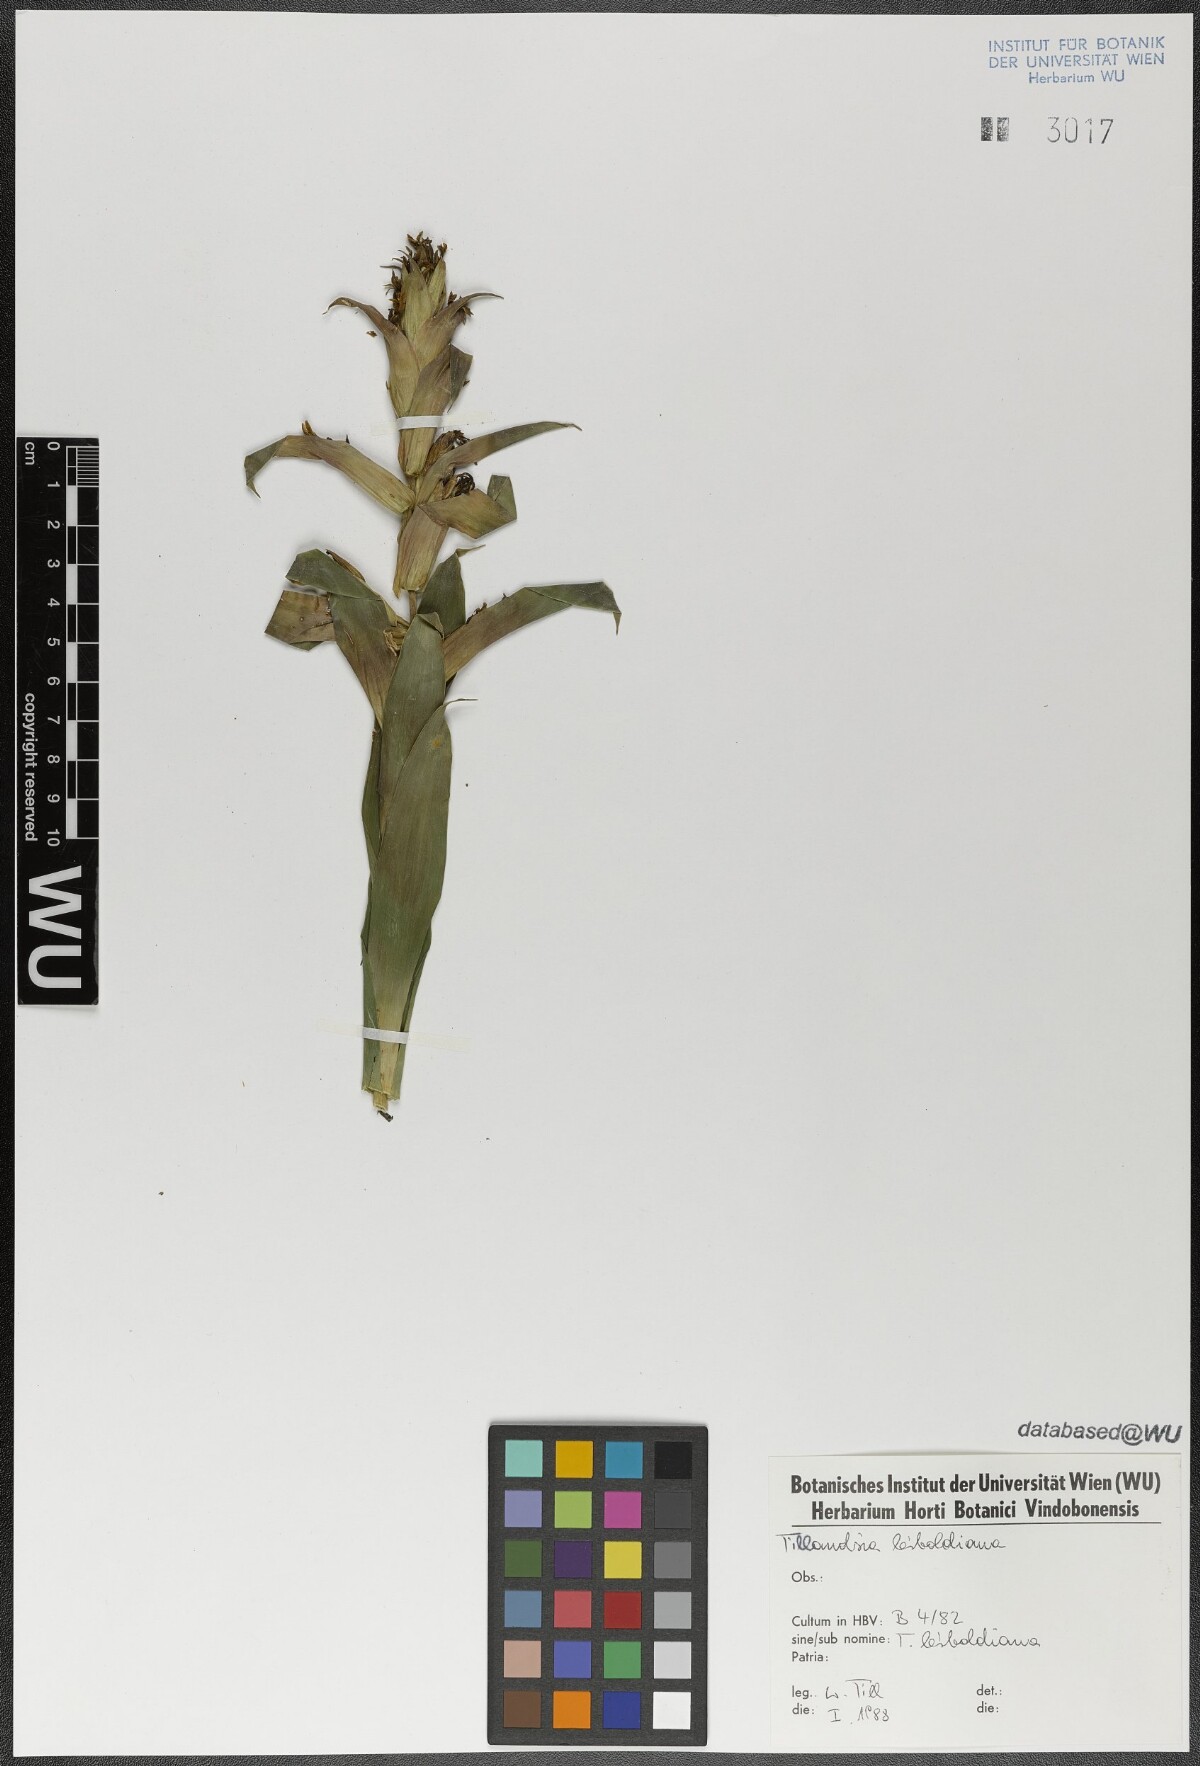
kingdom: Plantae
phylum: Tracheophyta
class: Liliopsida
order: Poales
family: Bromeliaceae
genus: Tillandsia
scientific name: Tillandsia leiboldiana
